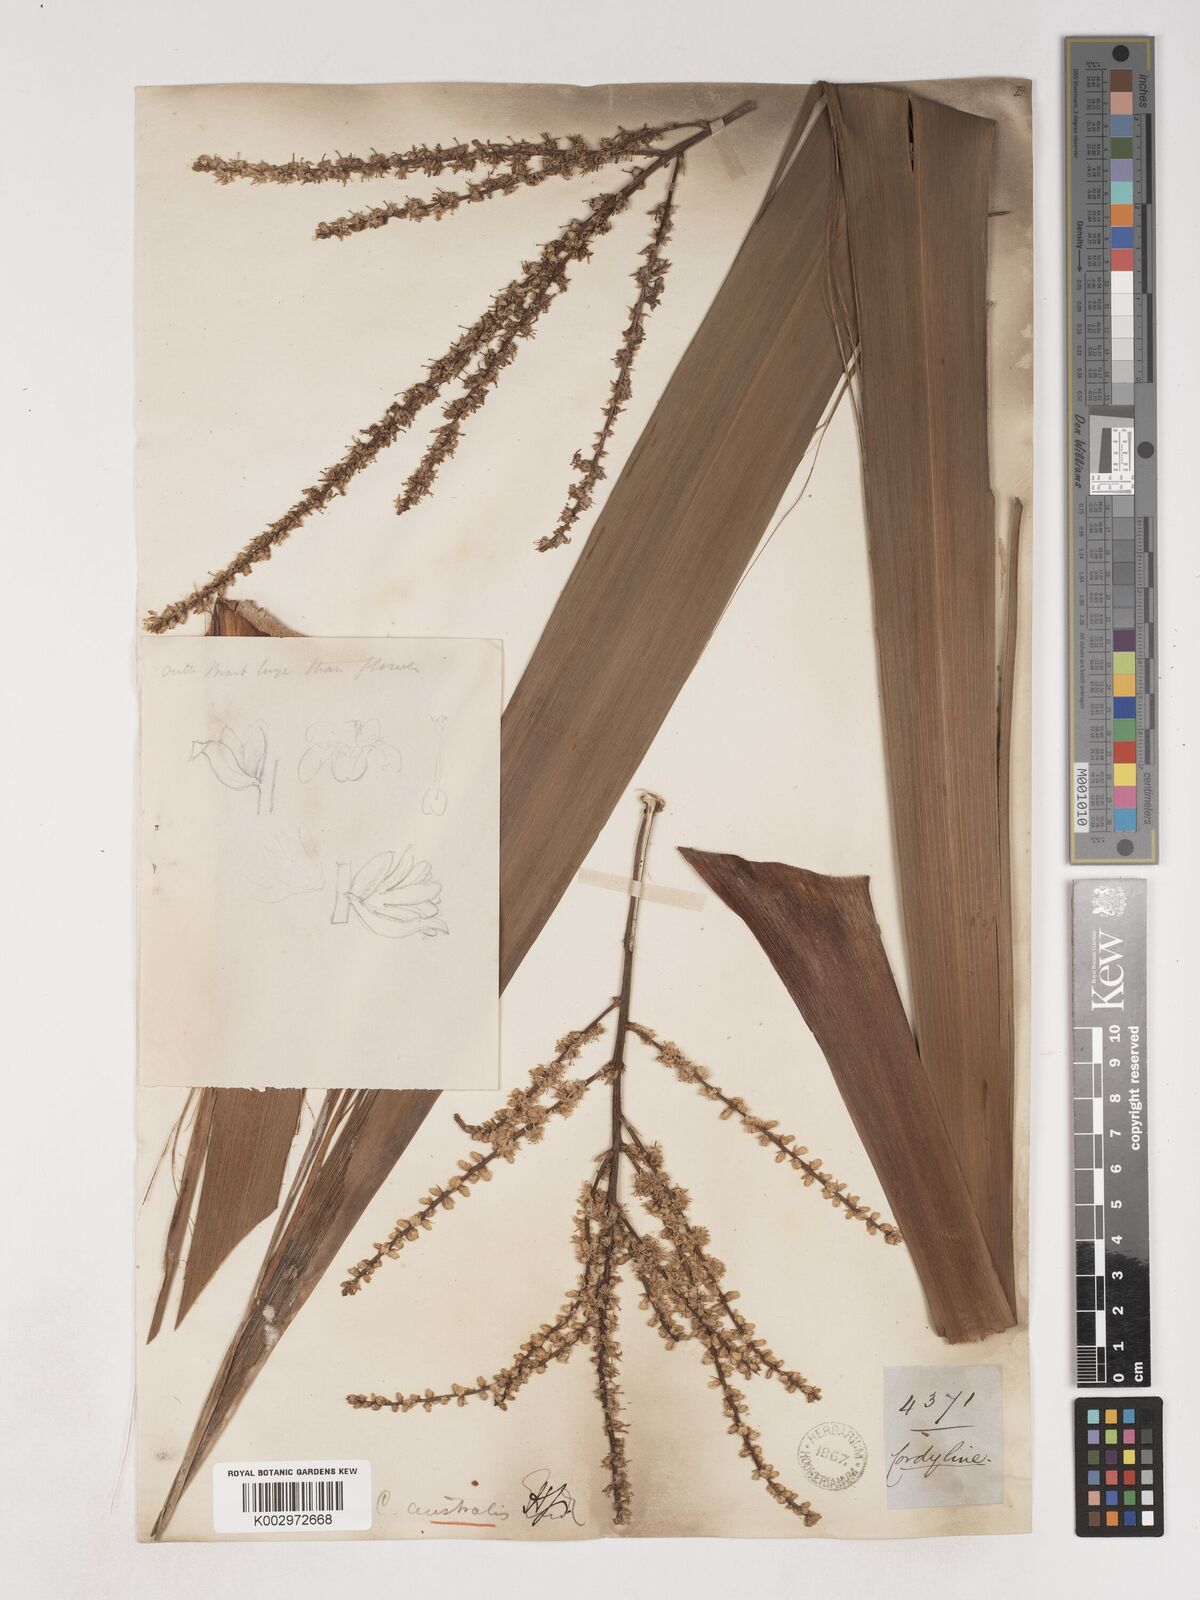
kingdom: Plantae
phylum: Tracheophyta
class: Liliopsida
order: Asparagales
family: Asparagaceae
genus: Cordyline
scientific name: Cordyline australis
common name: Cabbage-palm
